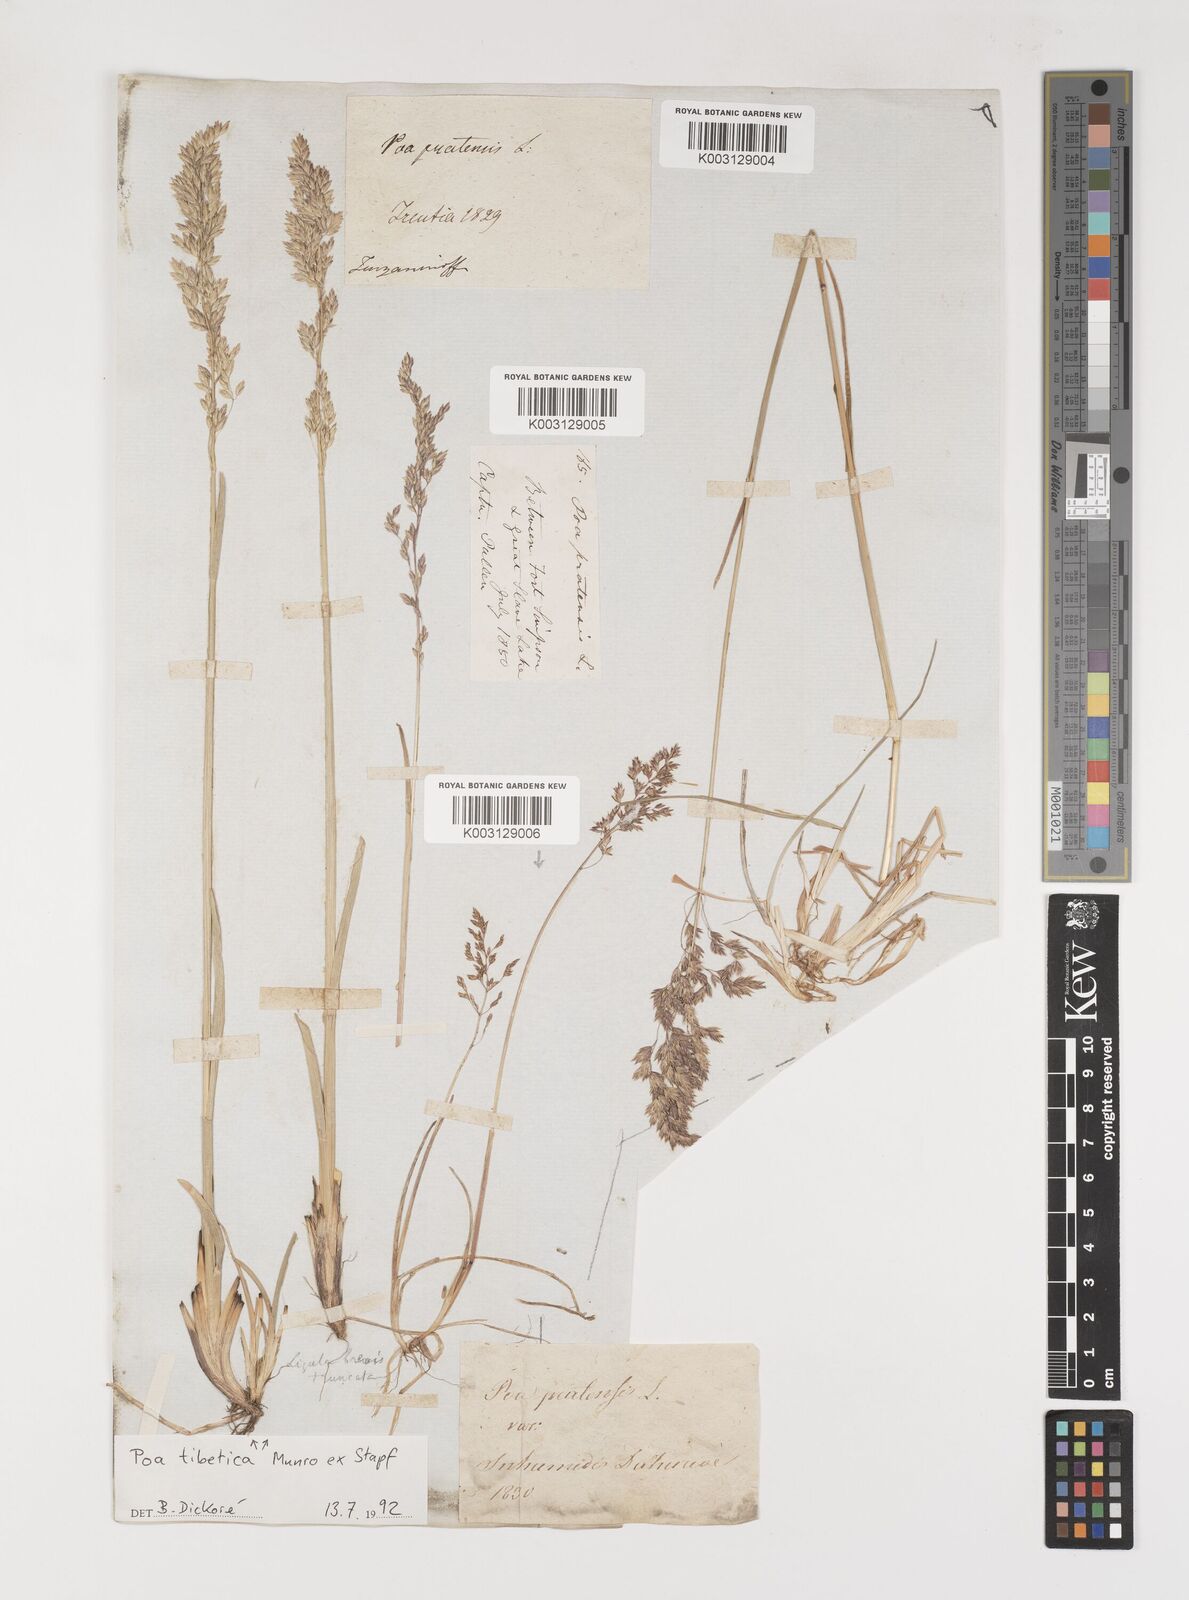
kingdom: Plantae
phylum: Tracheophyta
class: Liliopsida
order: Poales
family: Poaceae
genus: Arctopoa
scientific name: Arctopoa tibetica
